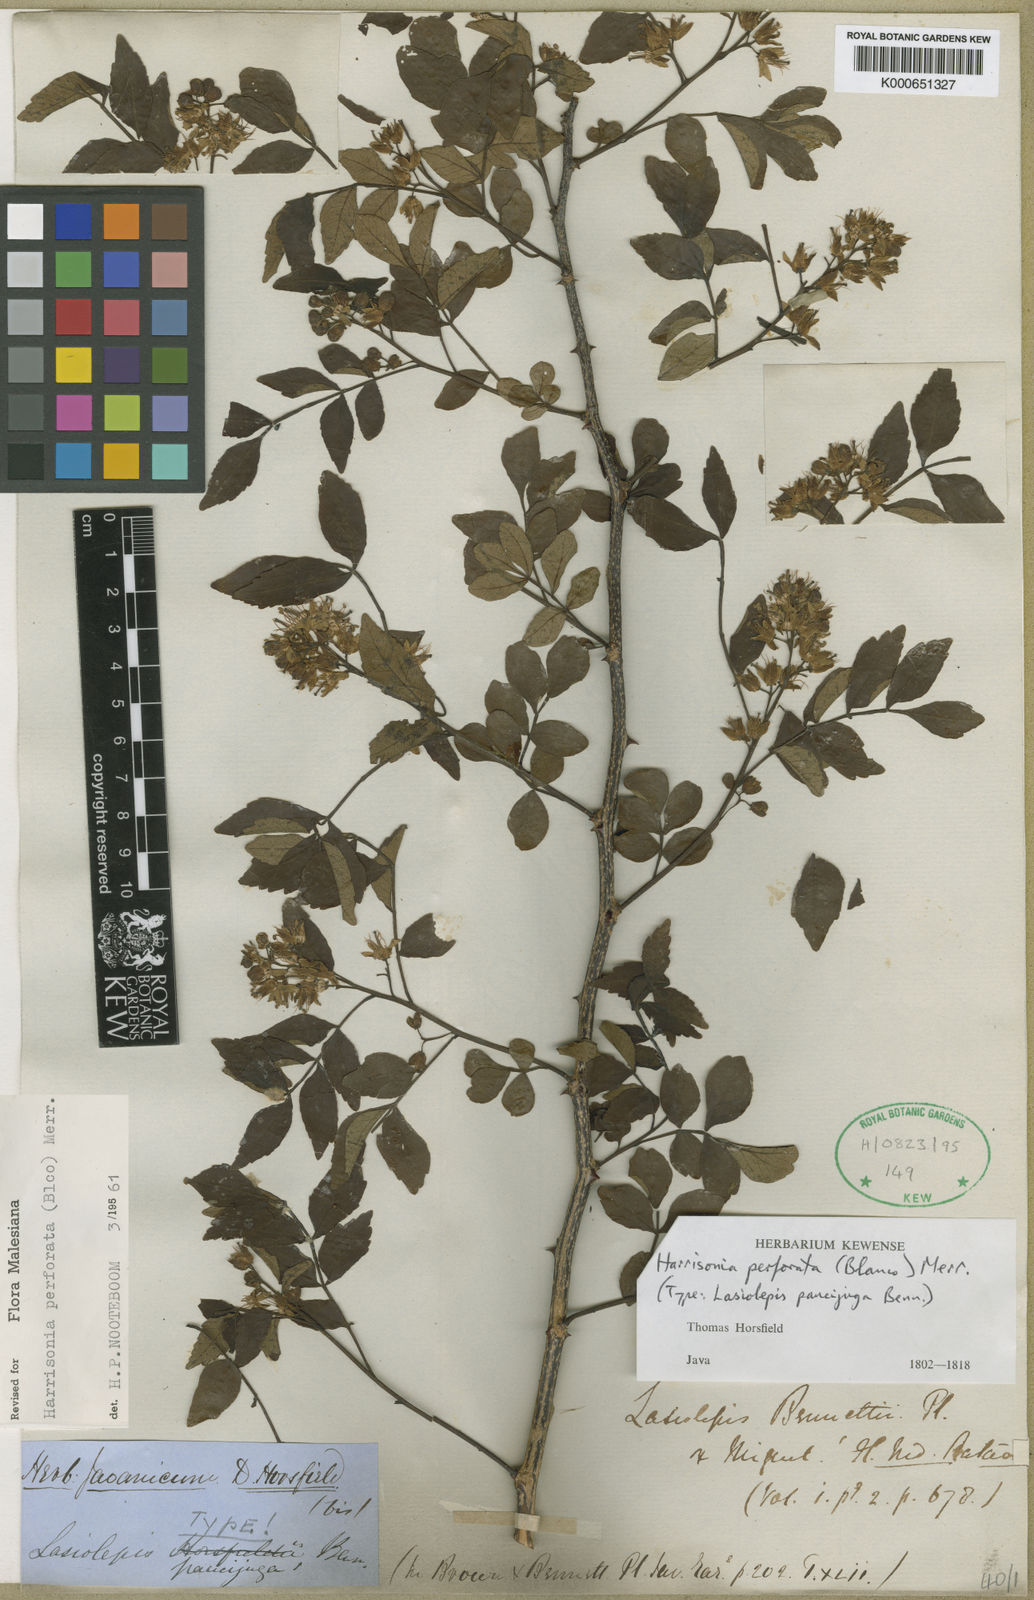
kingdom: Plantae
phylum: Tracheophyta
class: Magnoliopsida
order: Sapindales
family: Rutaceae
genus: Harrisonia
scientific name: Harrisonia perforata
